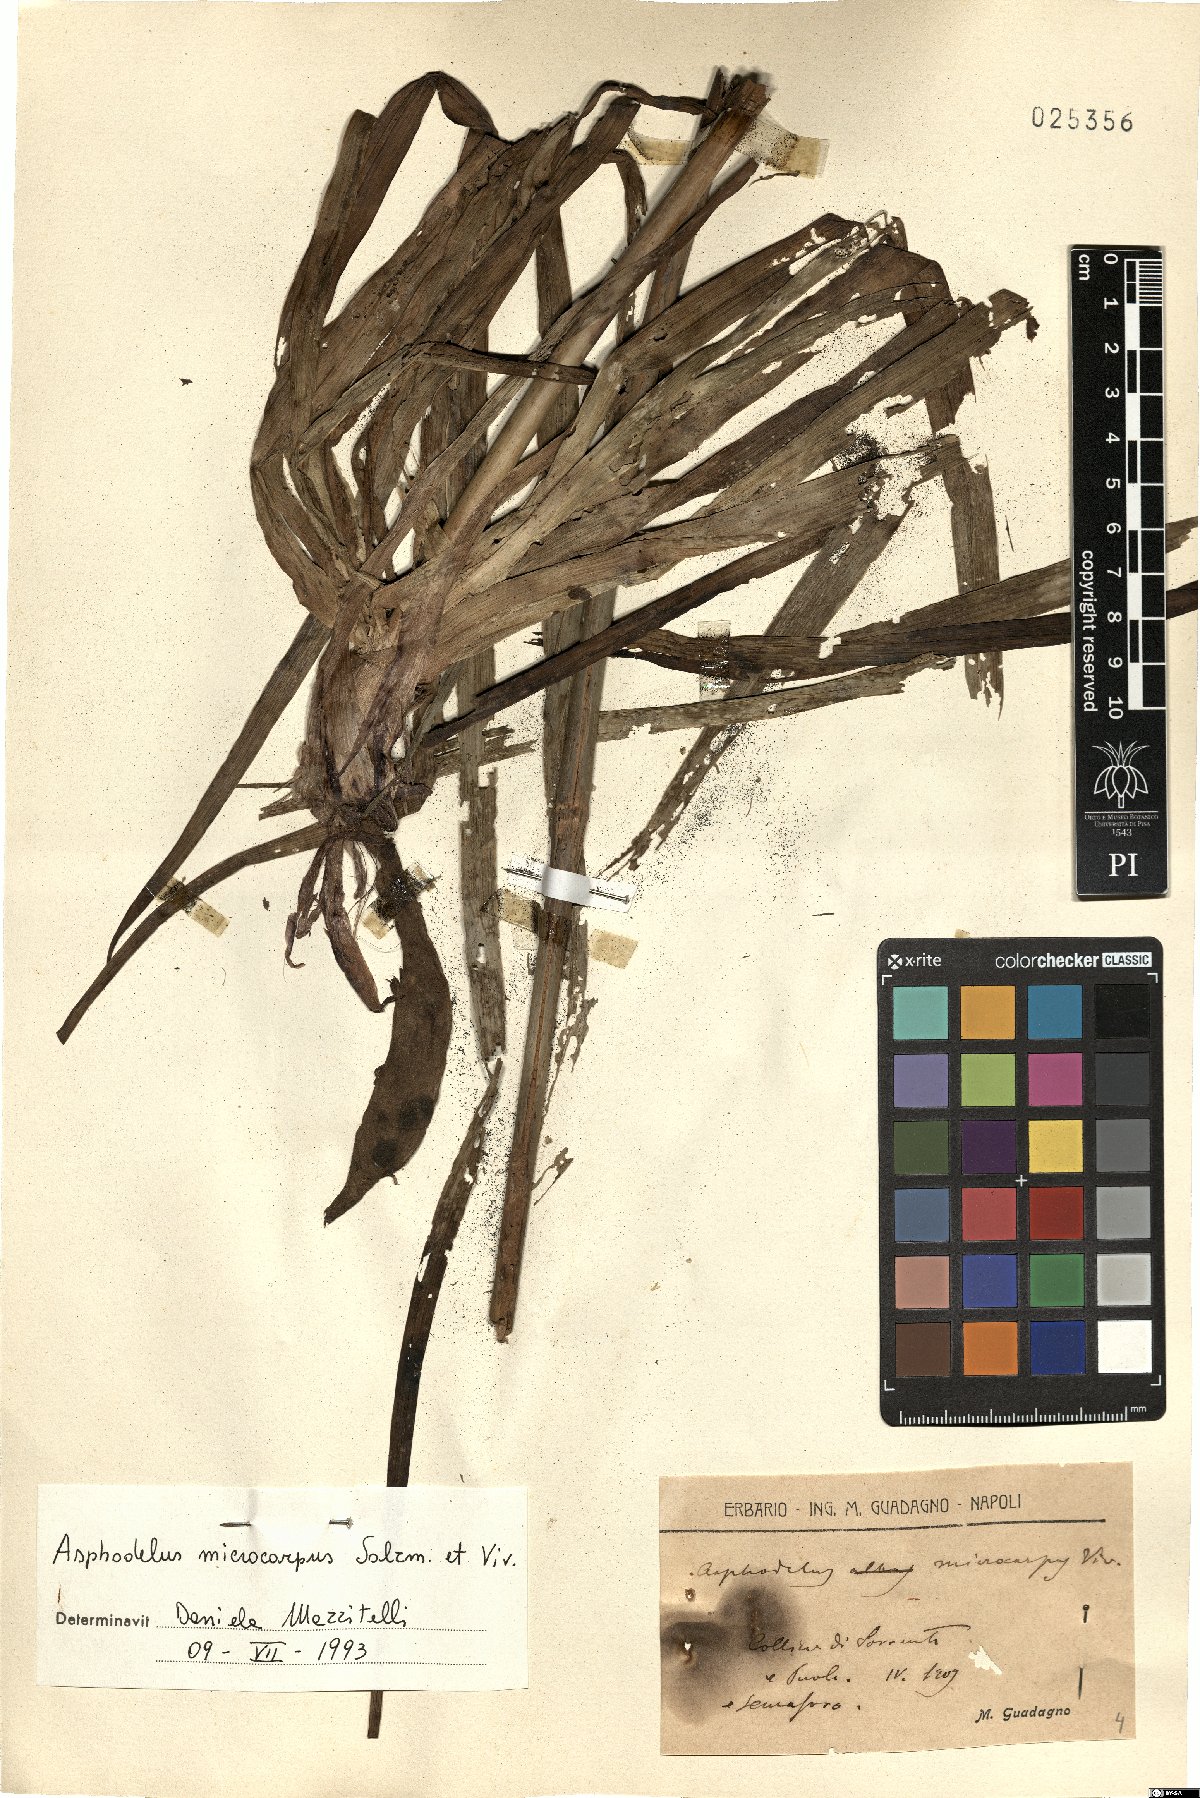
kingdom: Plantae
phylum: Tracheophyta
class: Liliopsida
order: Asparagales
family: Asphodelaceae
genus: Asphodelus
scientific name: Asphodelus ramosus
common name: Silverrod
